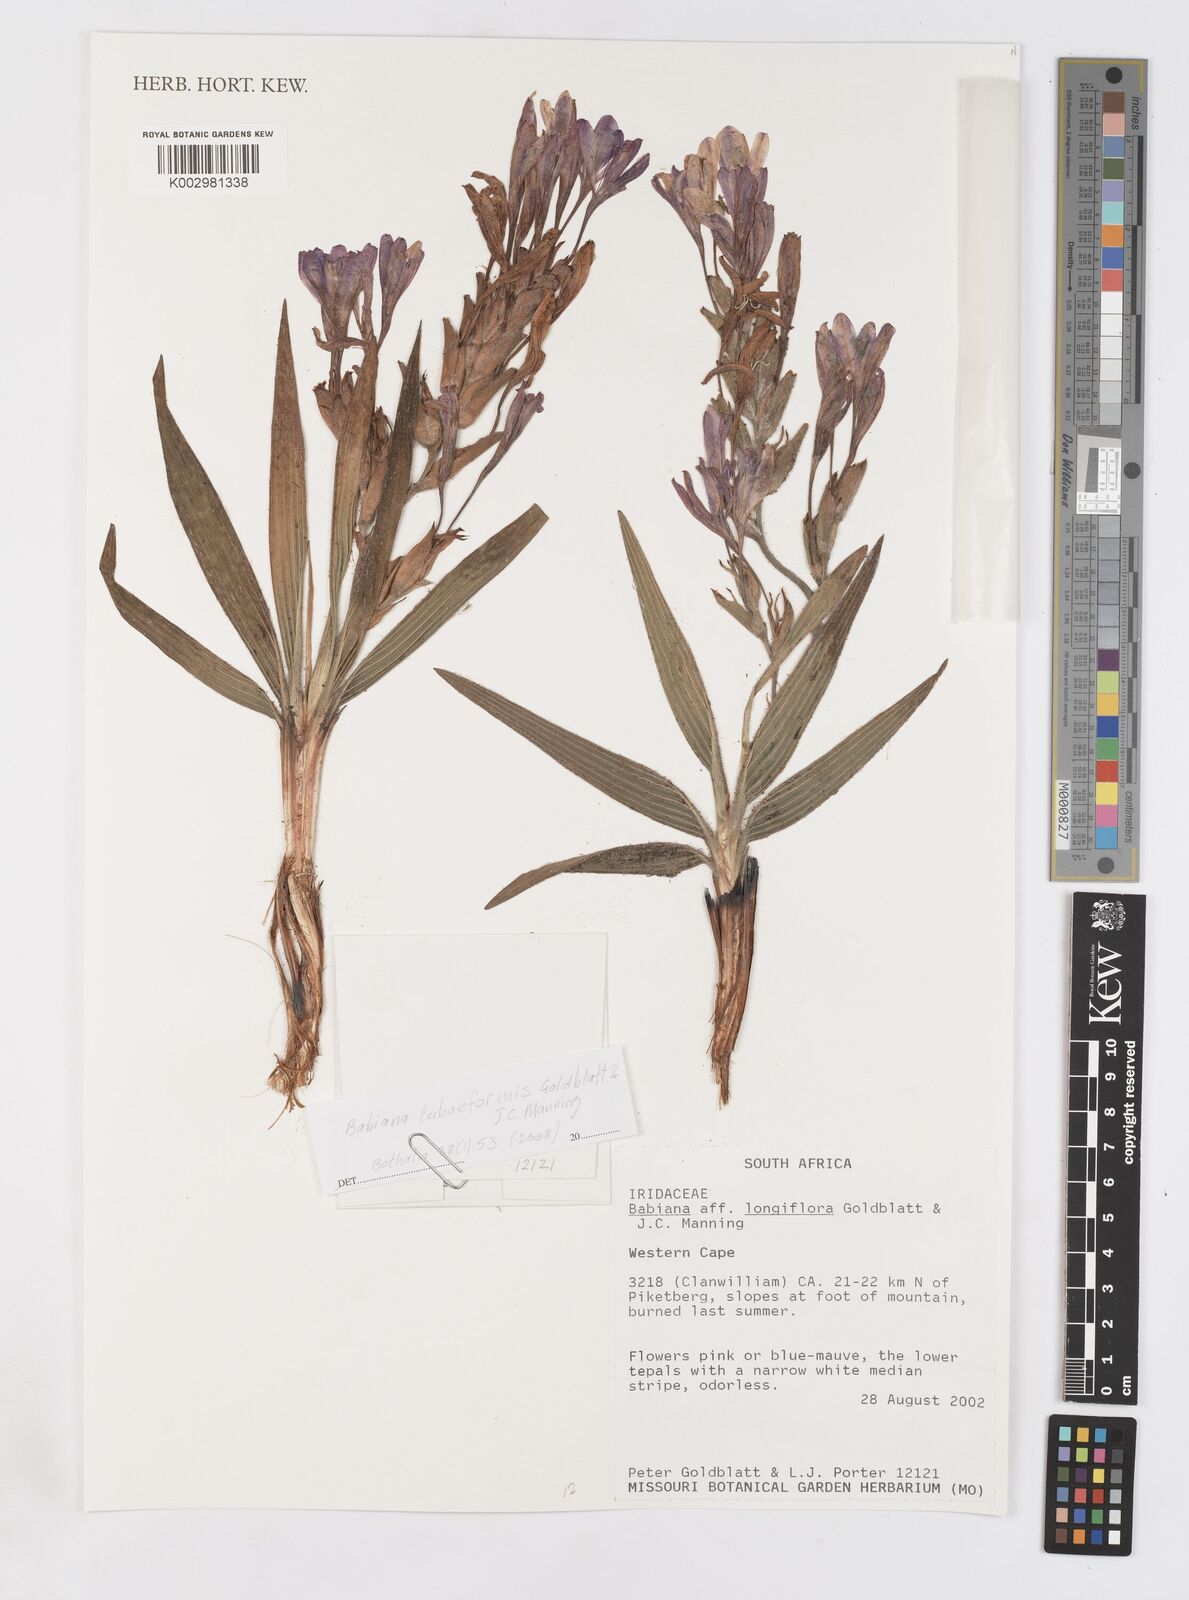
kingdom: Plantae
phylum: Tracheophyta
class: Liliopsida
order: Asparagales
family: Iridaceae
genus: Babiana
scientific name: Babiana tubaeformis
